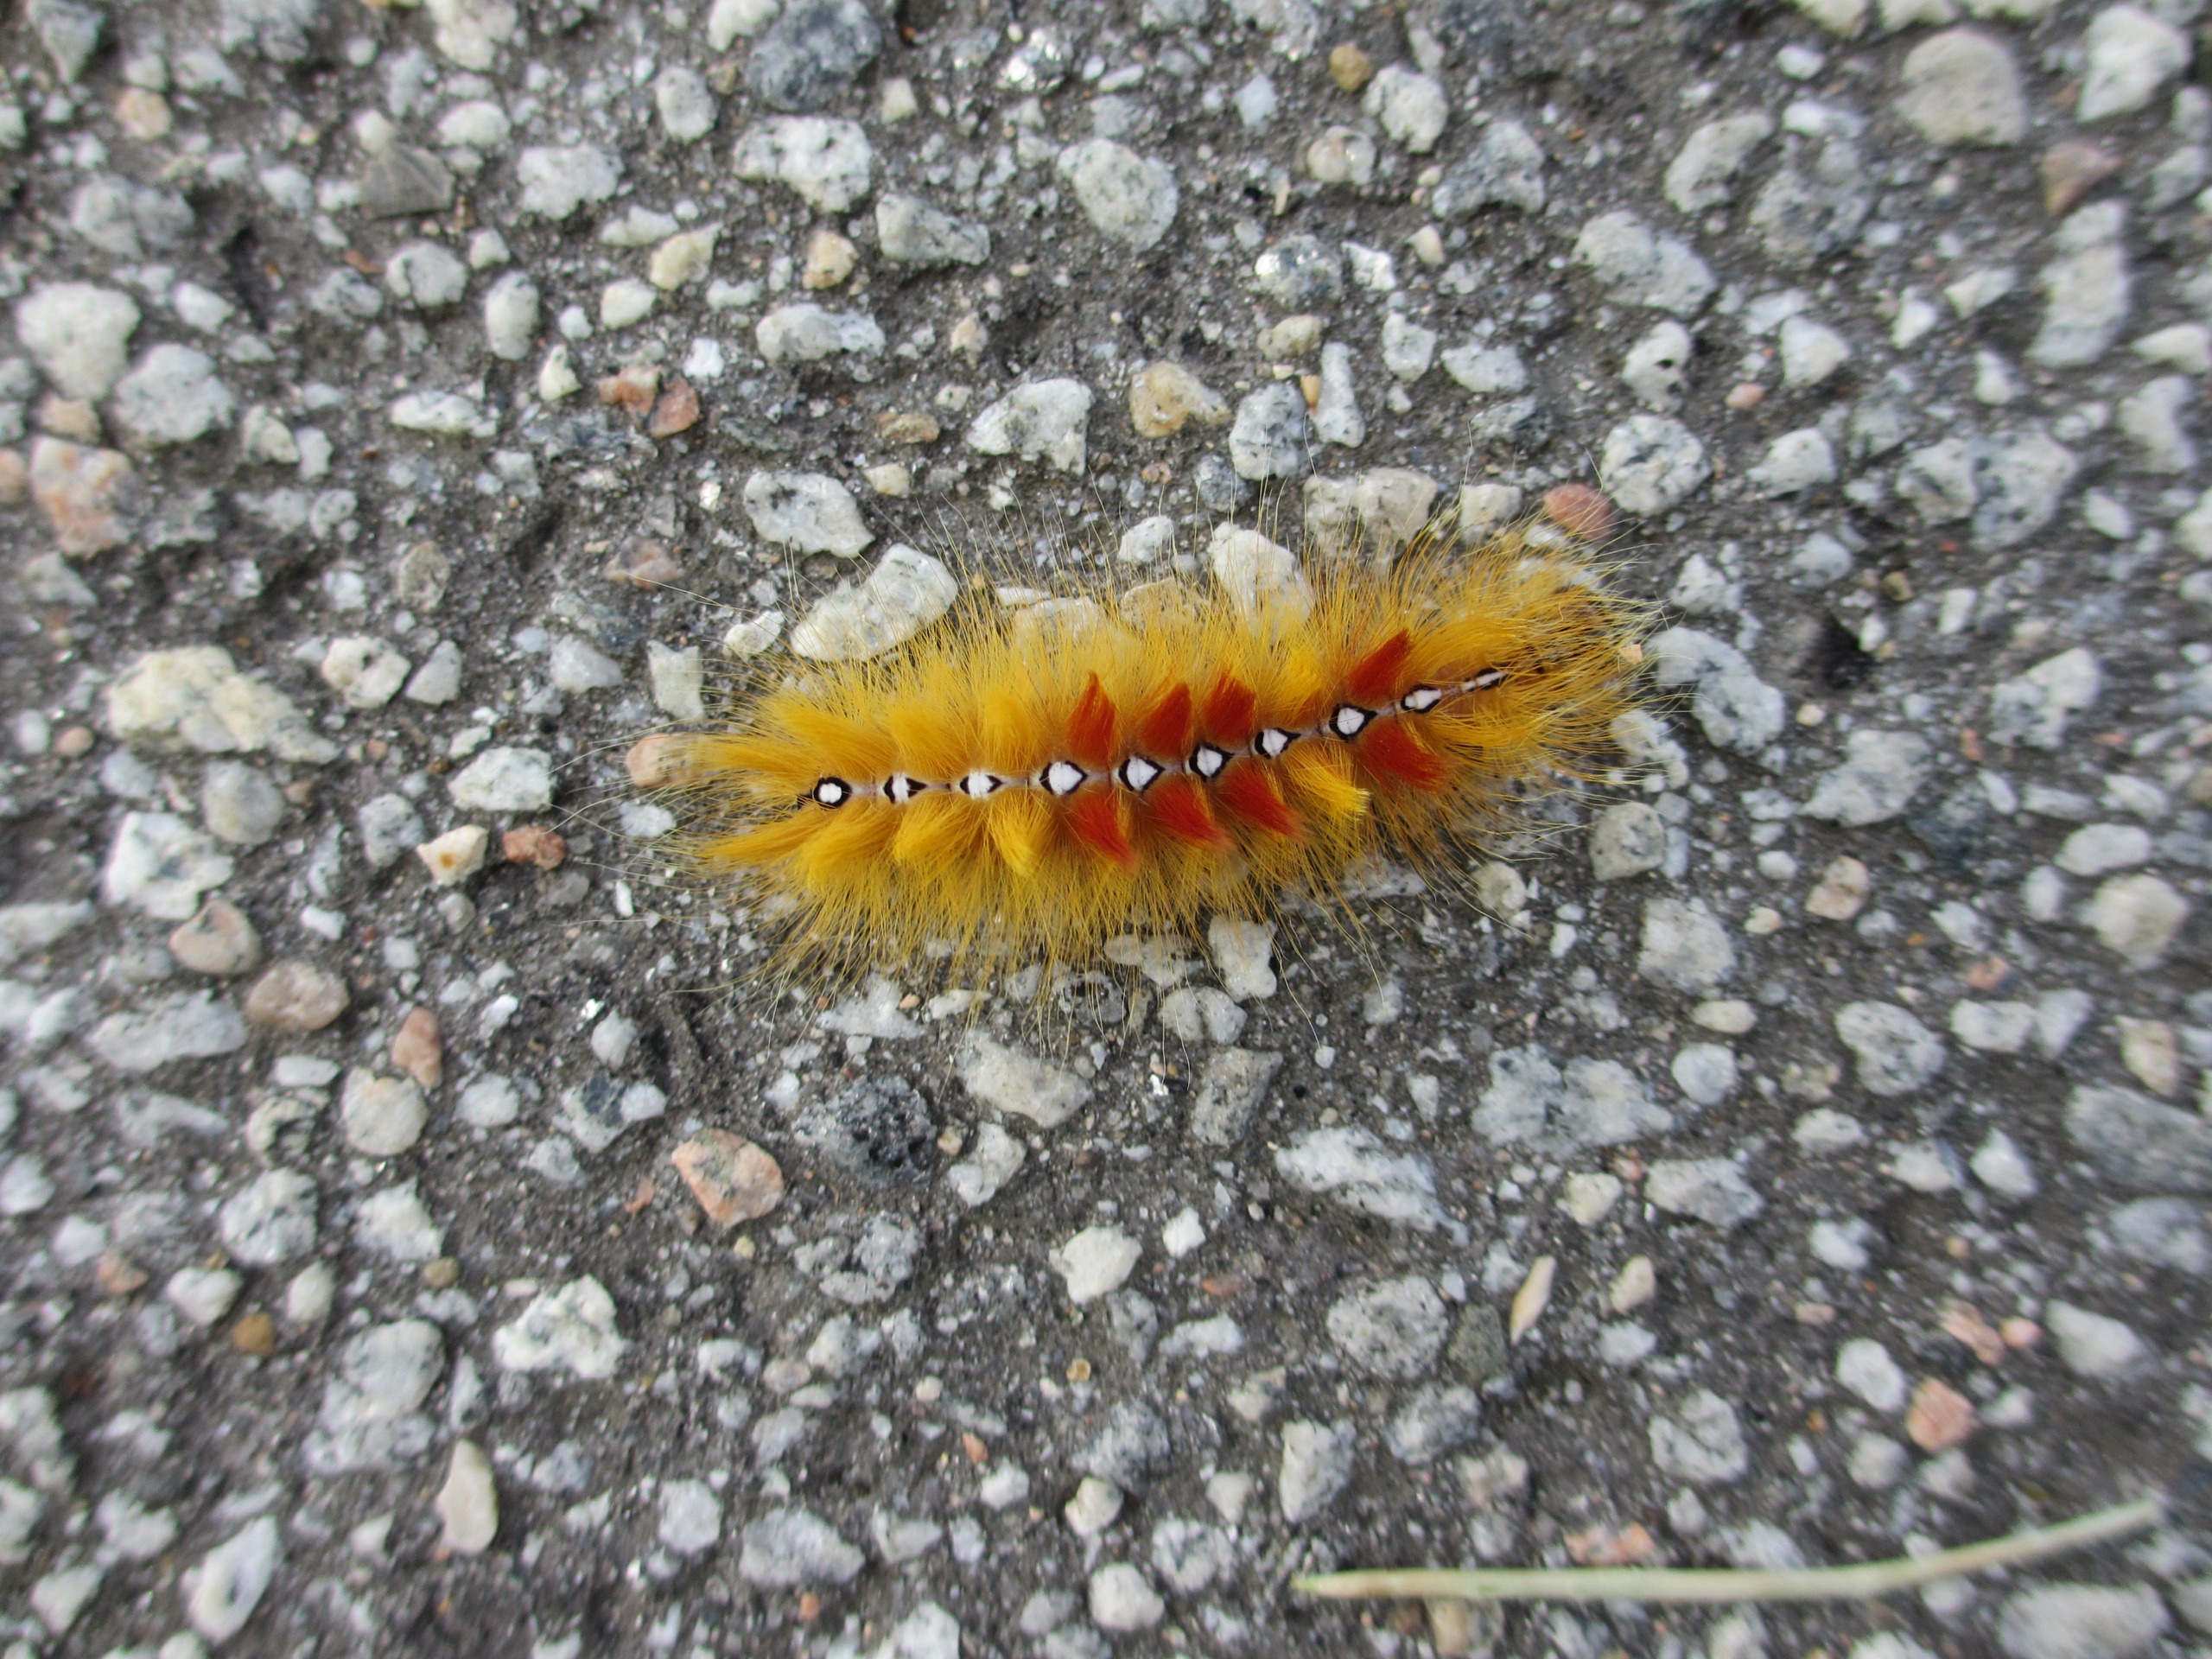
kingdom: Animalia
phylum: Arthropoda
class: Insecta
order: Lepidoptera
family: Noctuidae
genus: Acronicta
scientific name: Acronicta aceris
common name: Ahornugle
